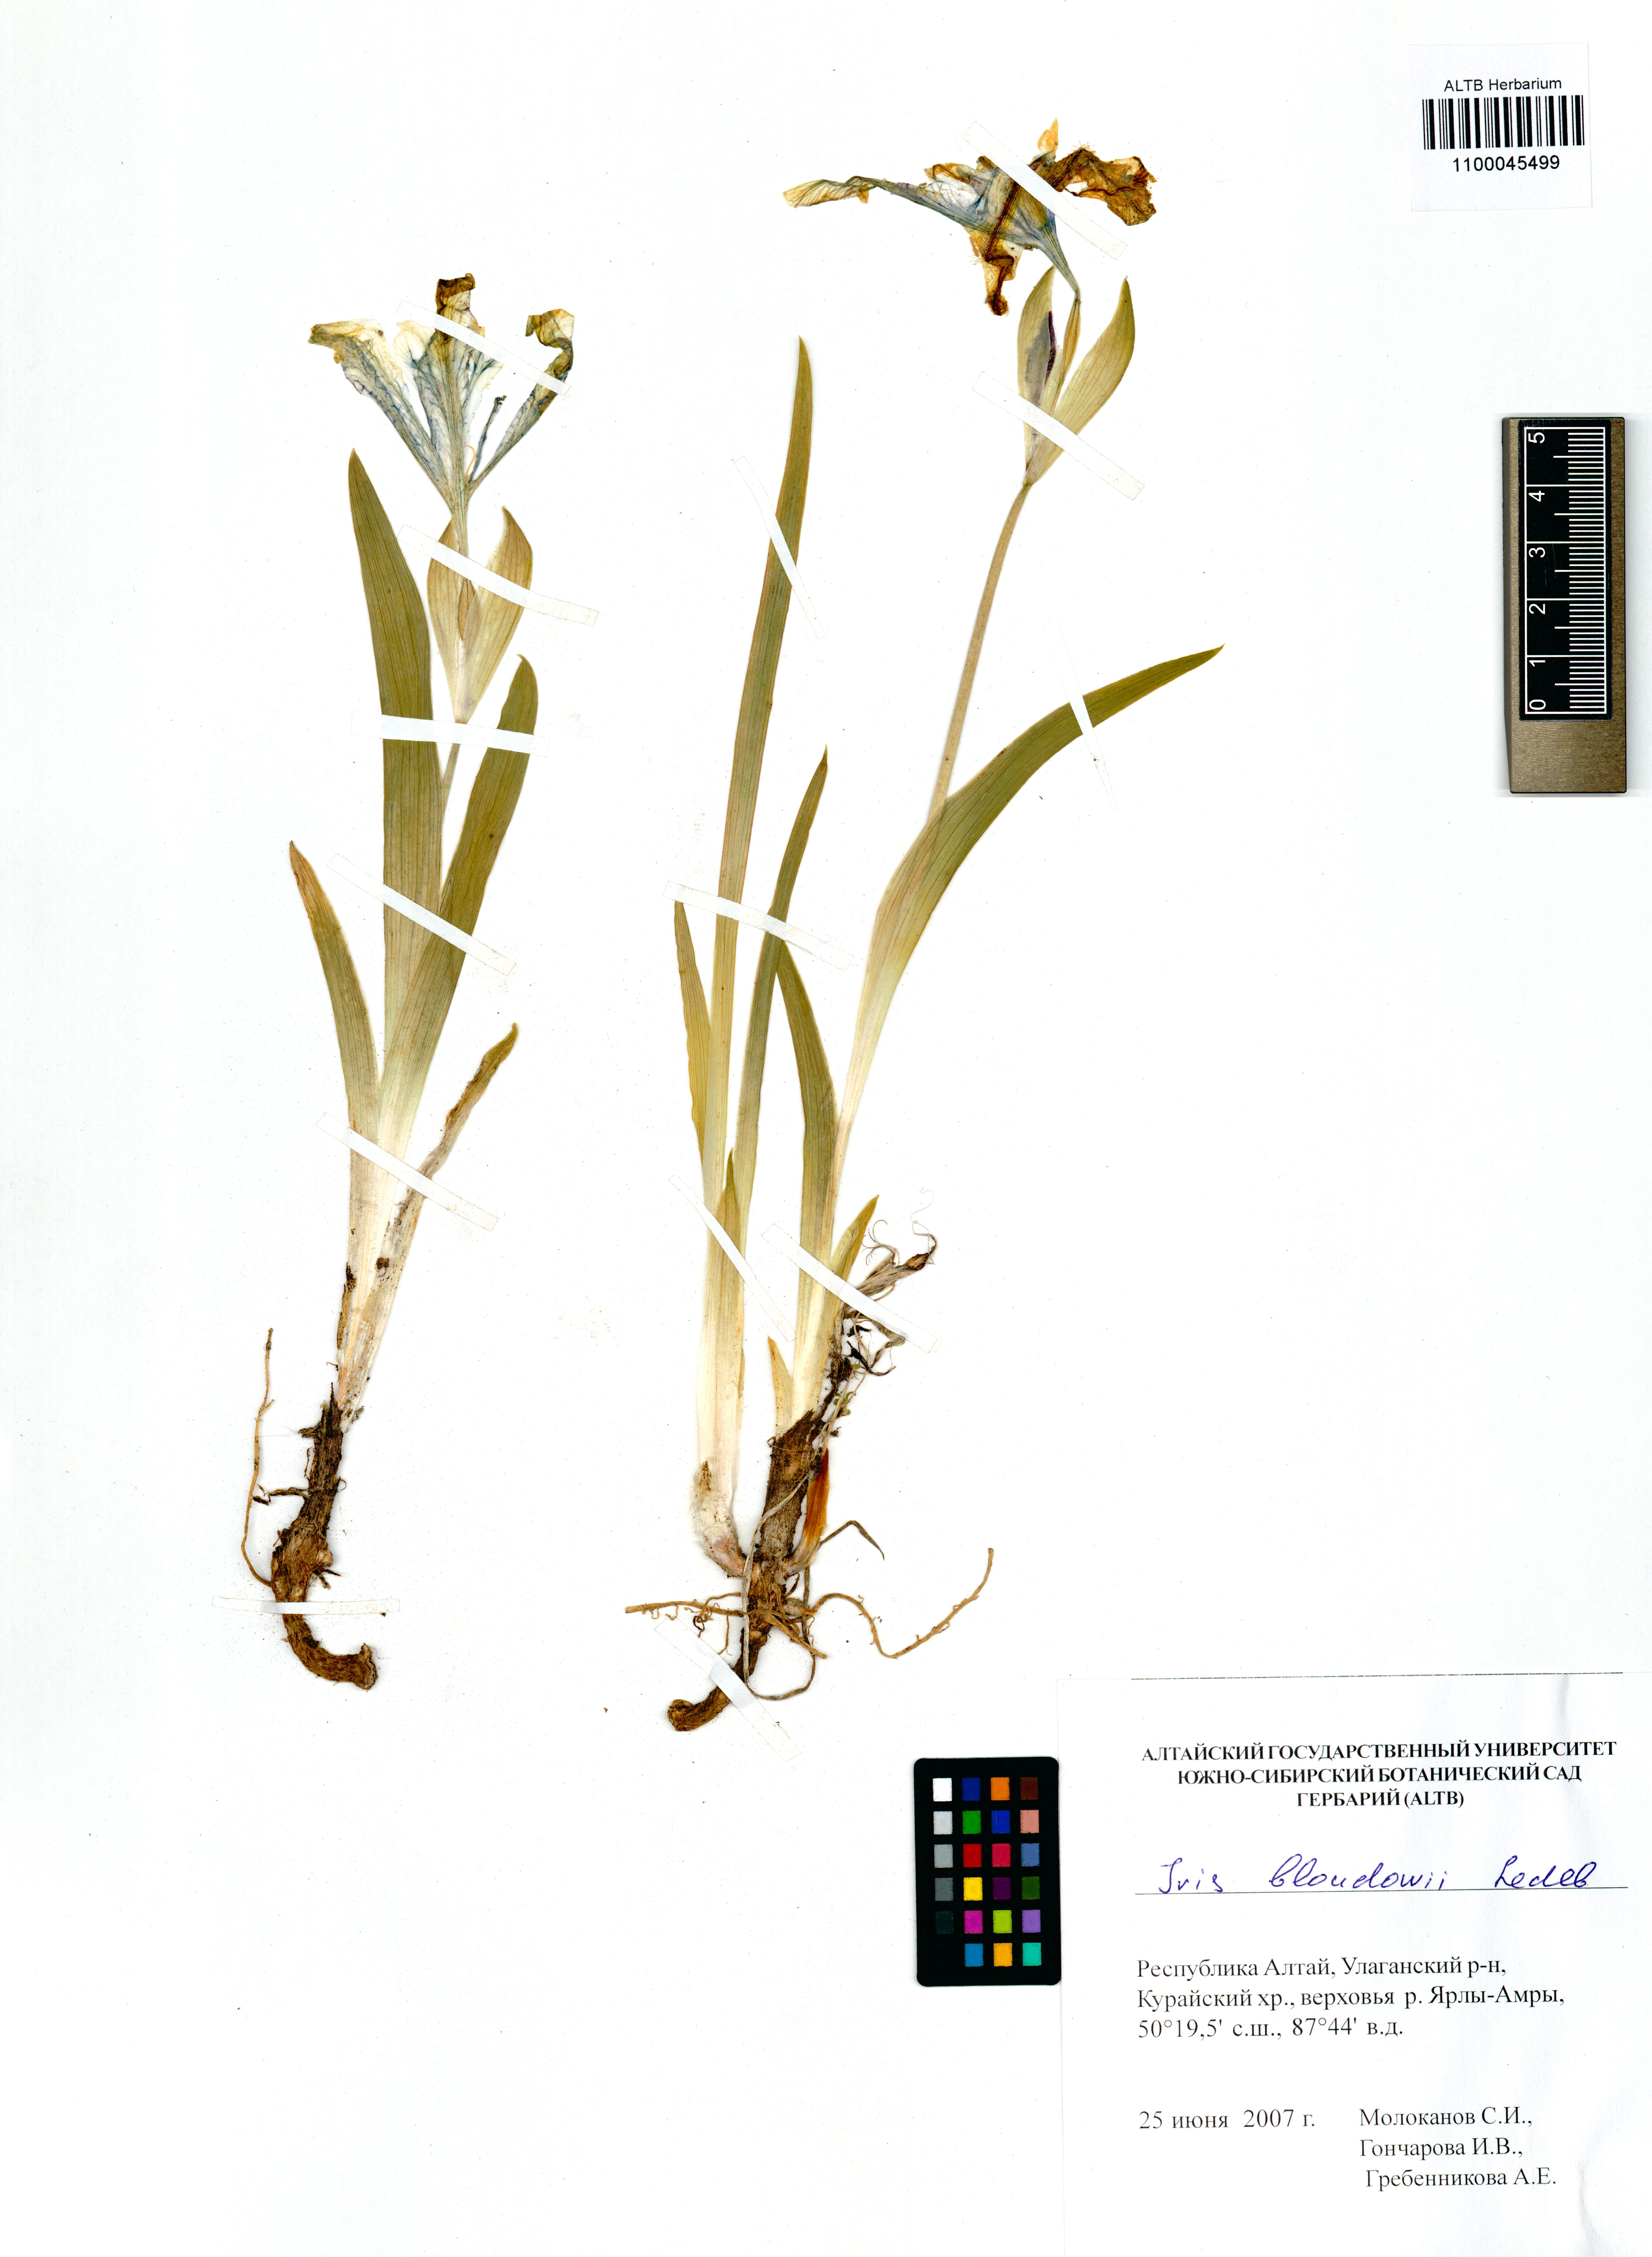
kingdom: Plantae
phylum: Tracheophyta
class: Liliopsida
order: Asparagales
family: Iridaceae
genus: Iris
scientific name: Iris bloudowii
